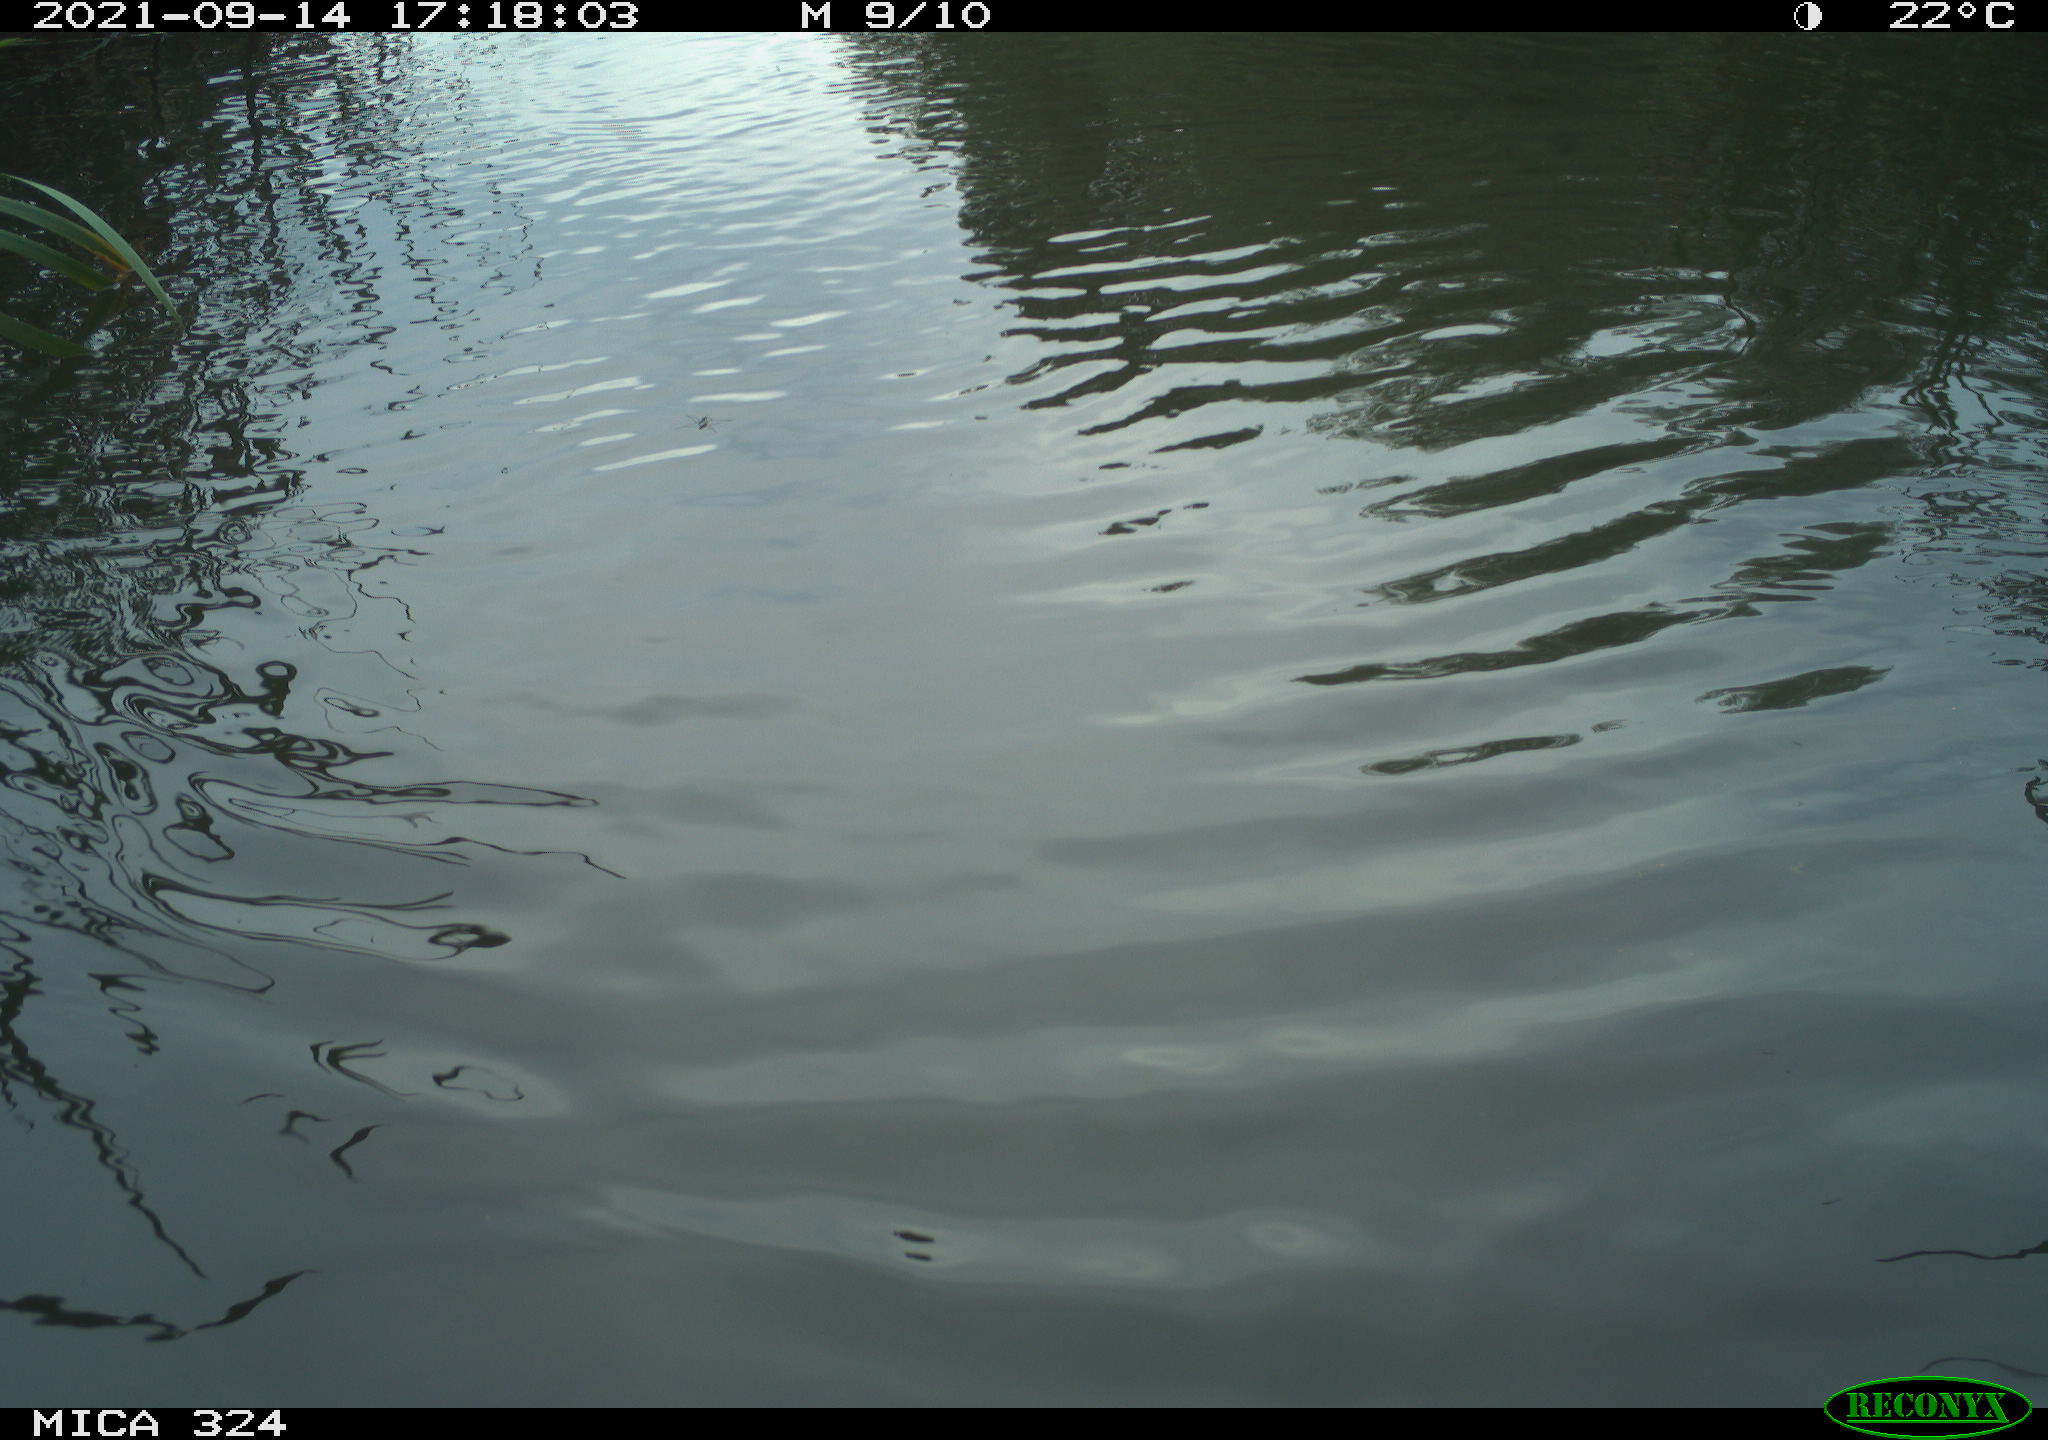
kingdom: Animalia
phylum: Chordata
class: Mammalia
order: Rodentia
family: Cricetidae
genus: Ondatra
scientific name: Ondatra zibethicus
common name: Muskrat
